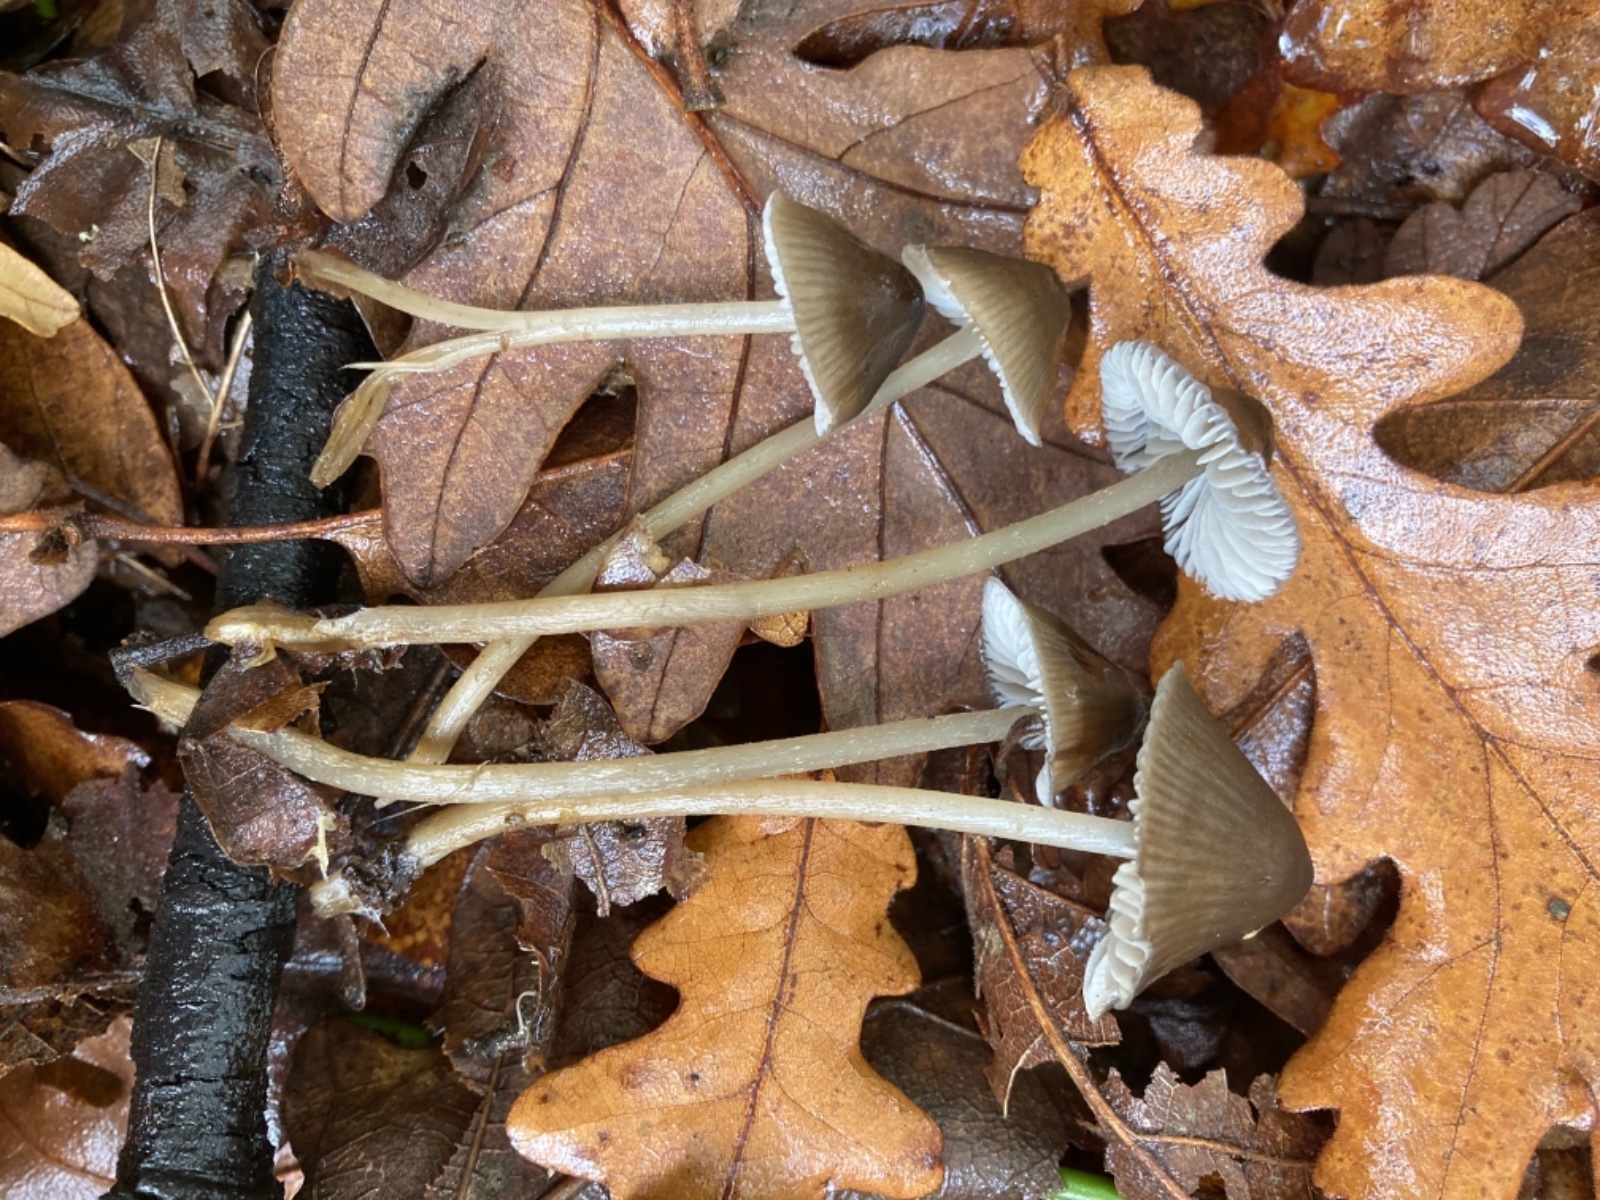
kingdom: Fungi
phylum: Basidiomycota
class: Agaricomycetes
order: Agaricales
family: Mycenaceae
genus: Mycopan
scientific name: Mycopan scabripes
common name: mørk fnugfod
